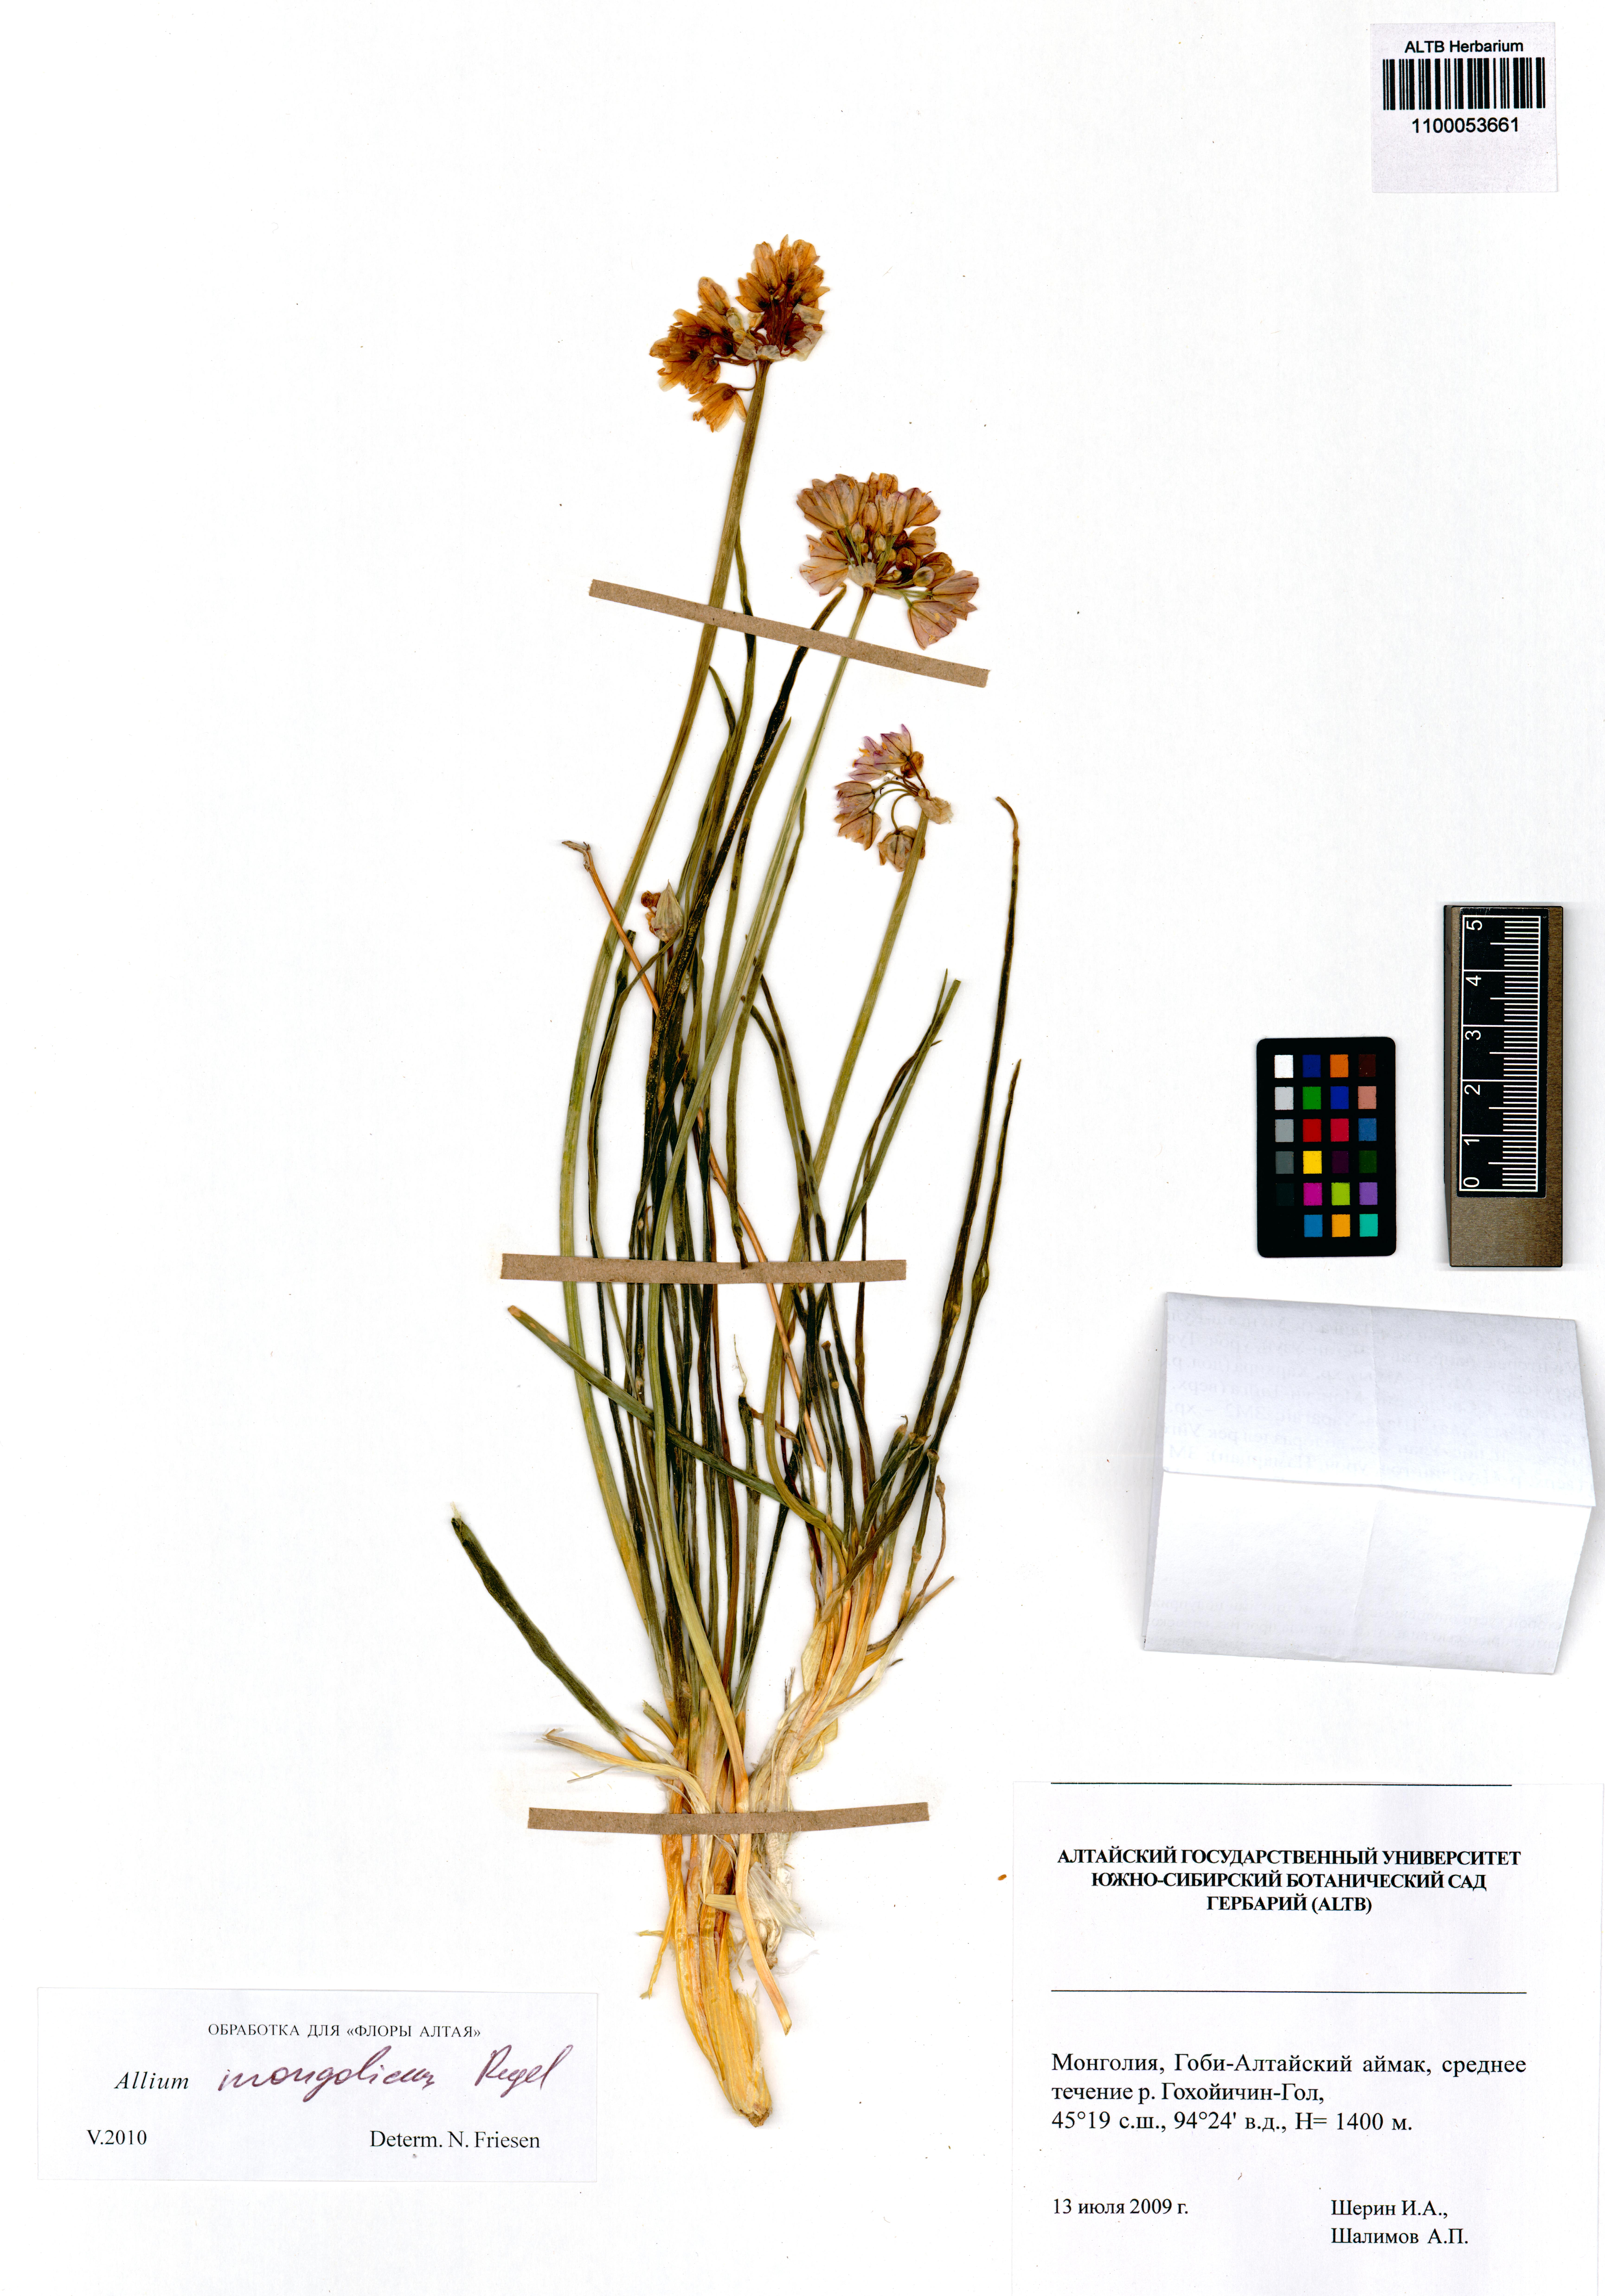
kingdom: Plantae
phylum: Tracheophyta
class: Liliopsida
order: Asparagales
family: Amaryllidaceae
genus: Allium
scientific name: Allium mongolicum
